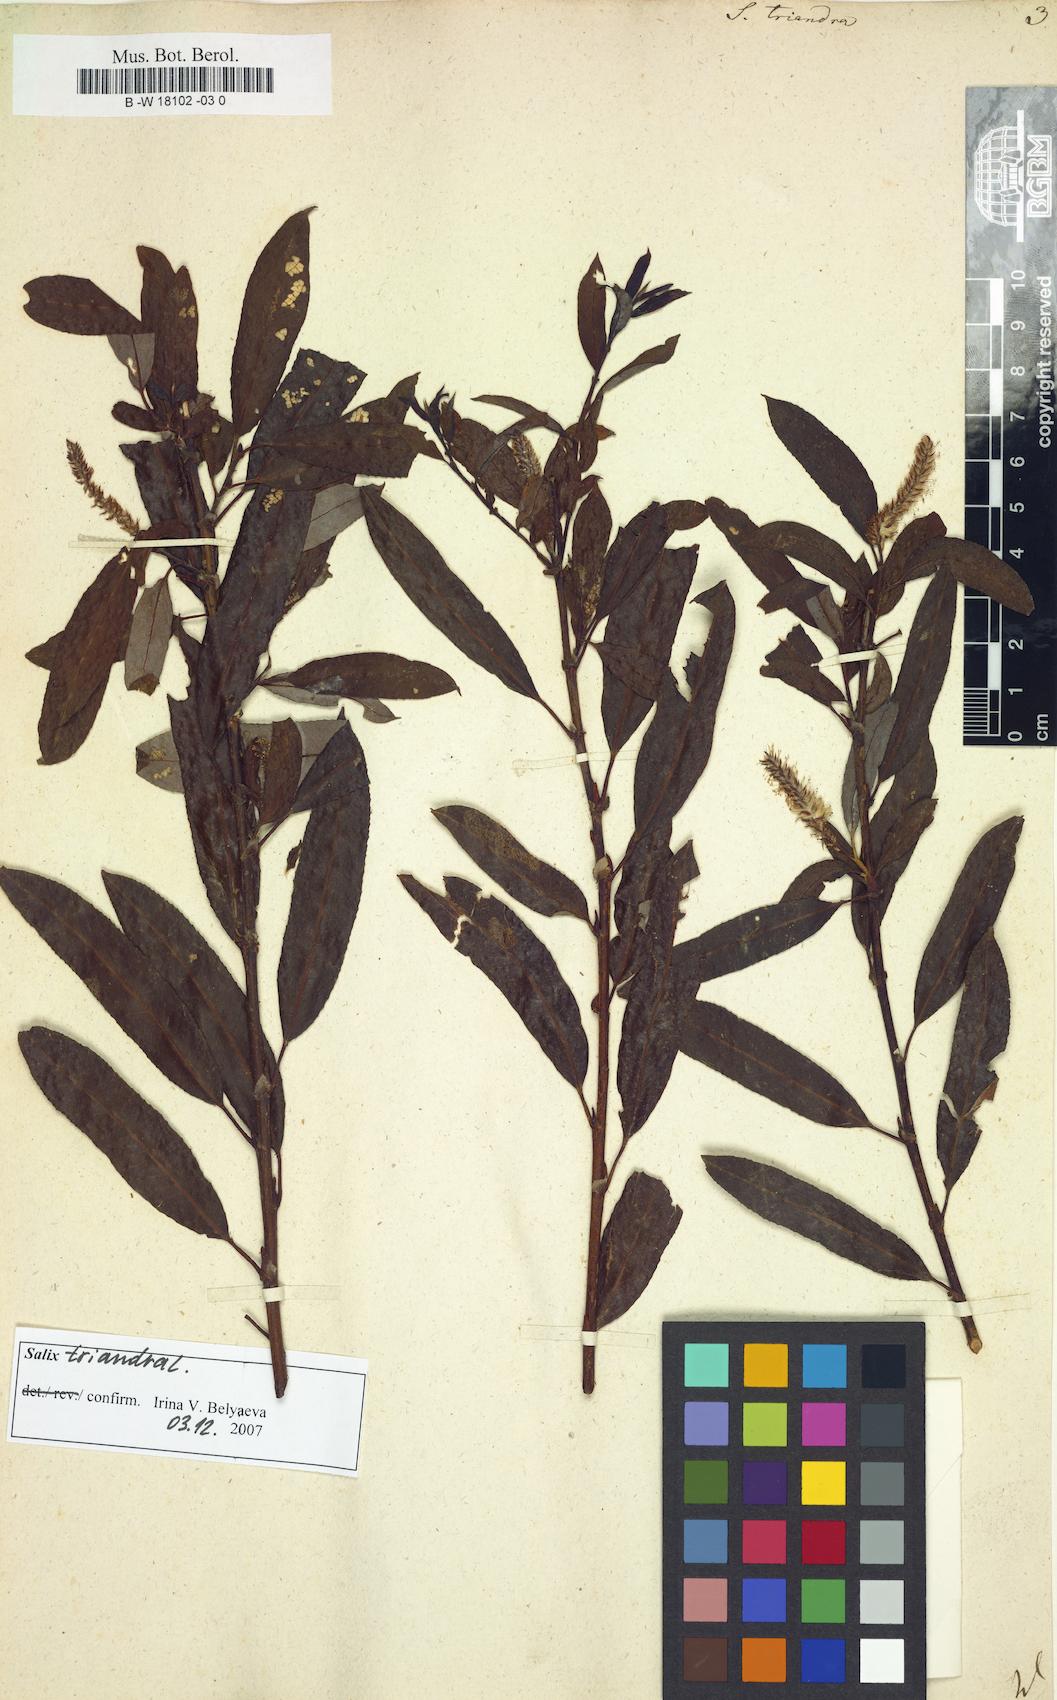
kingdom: Plantae
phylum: Tracheophyta
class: Magnoliopsida
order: Malpighiales
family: Salicaceae
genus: Salix
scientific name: Salix triandra
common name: Almond willow
